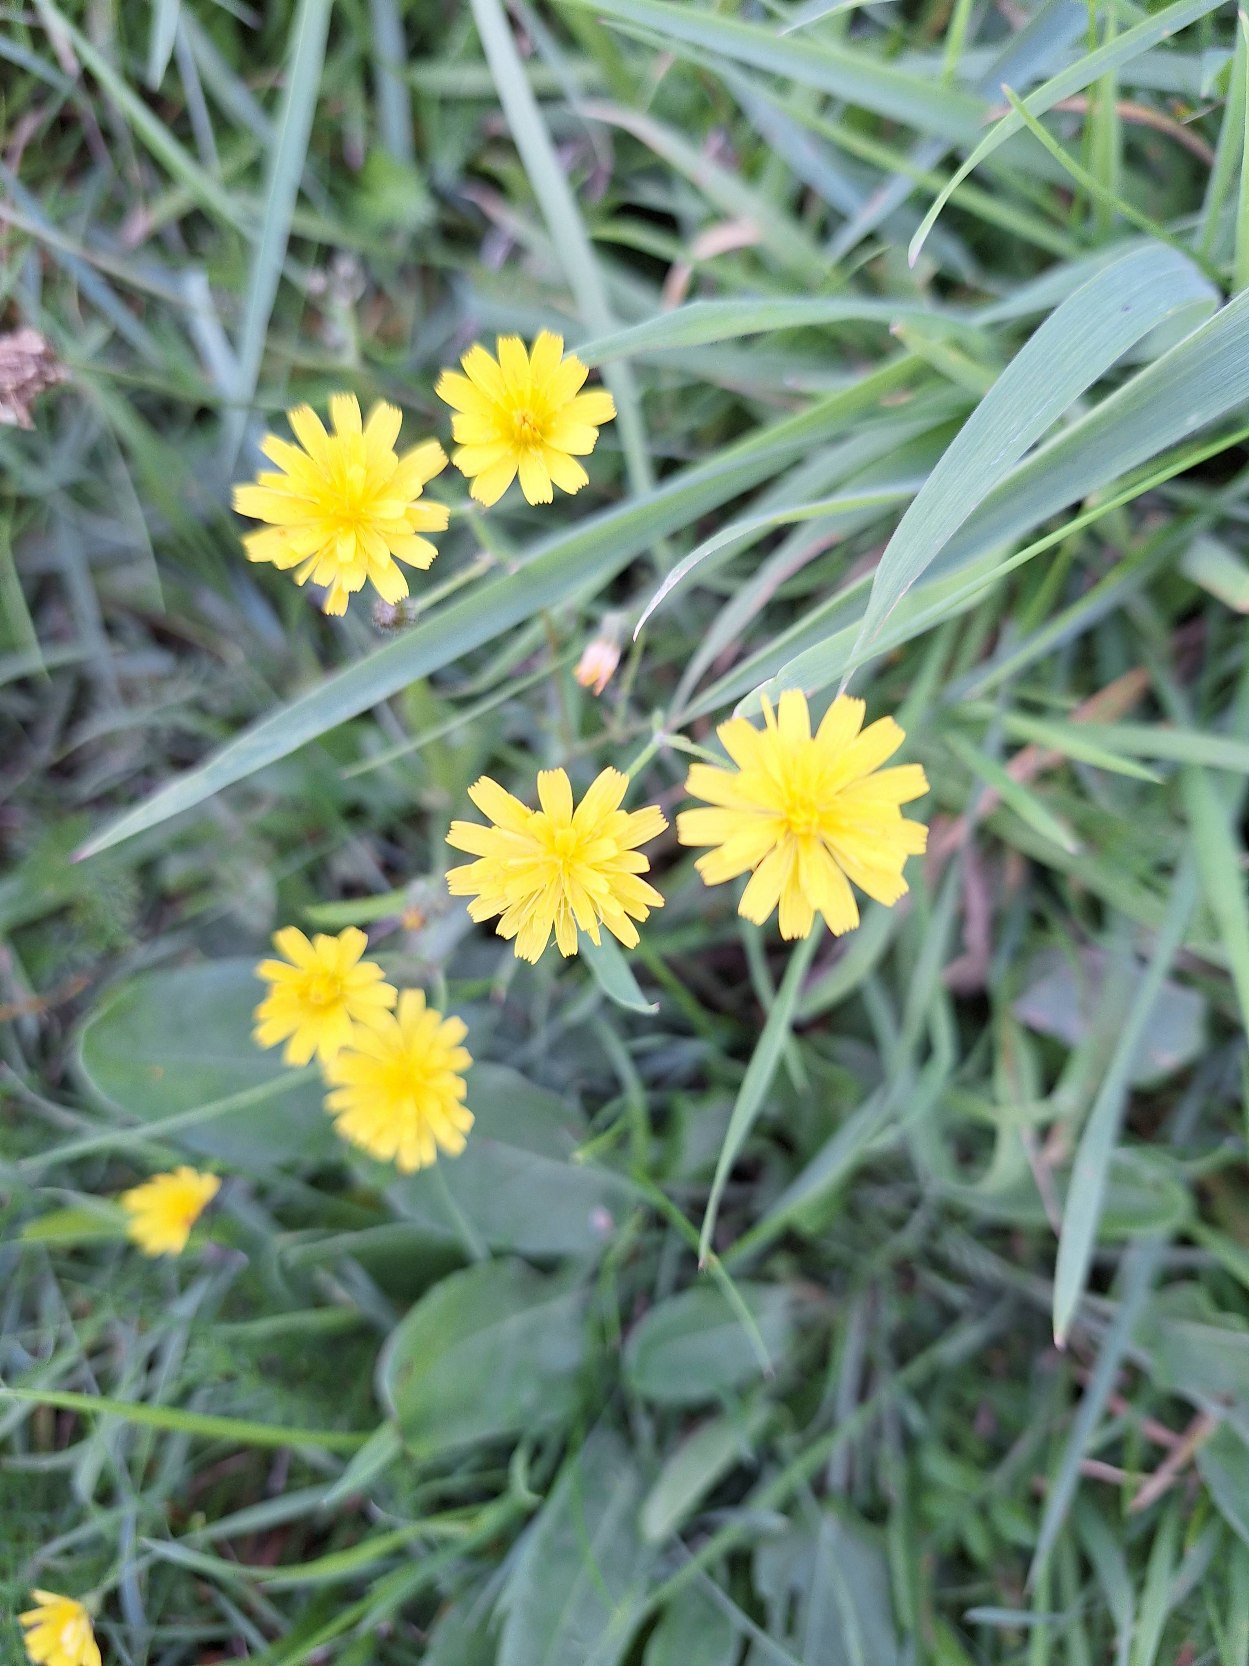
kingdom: Plantae
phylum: Tracheophyta
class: Magnoliopsida
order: Asterales
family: Asteraceae
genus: Crepis
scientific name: Crepis capillaris
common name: Grøn høgeskæg
